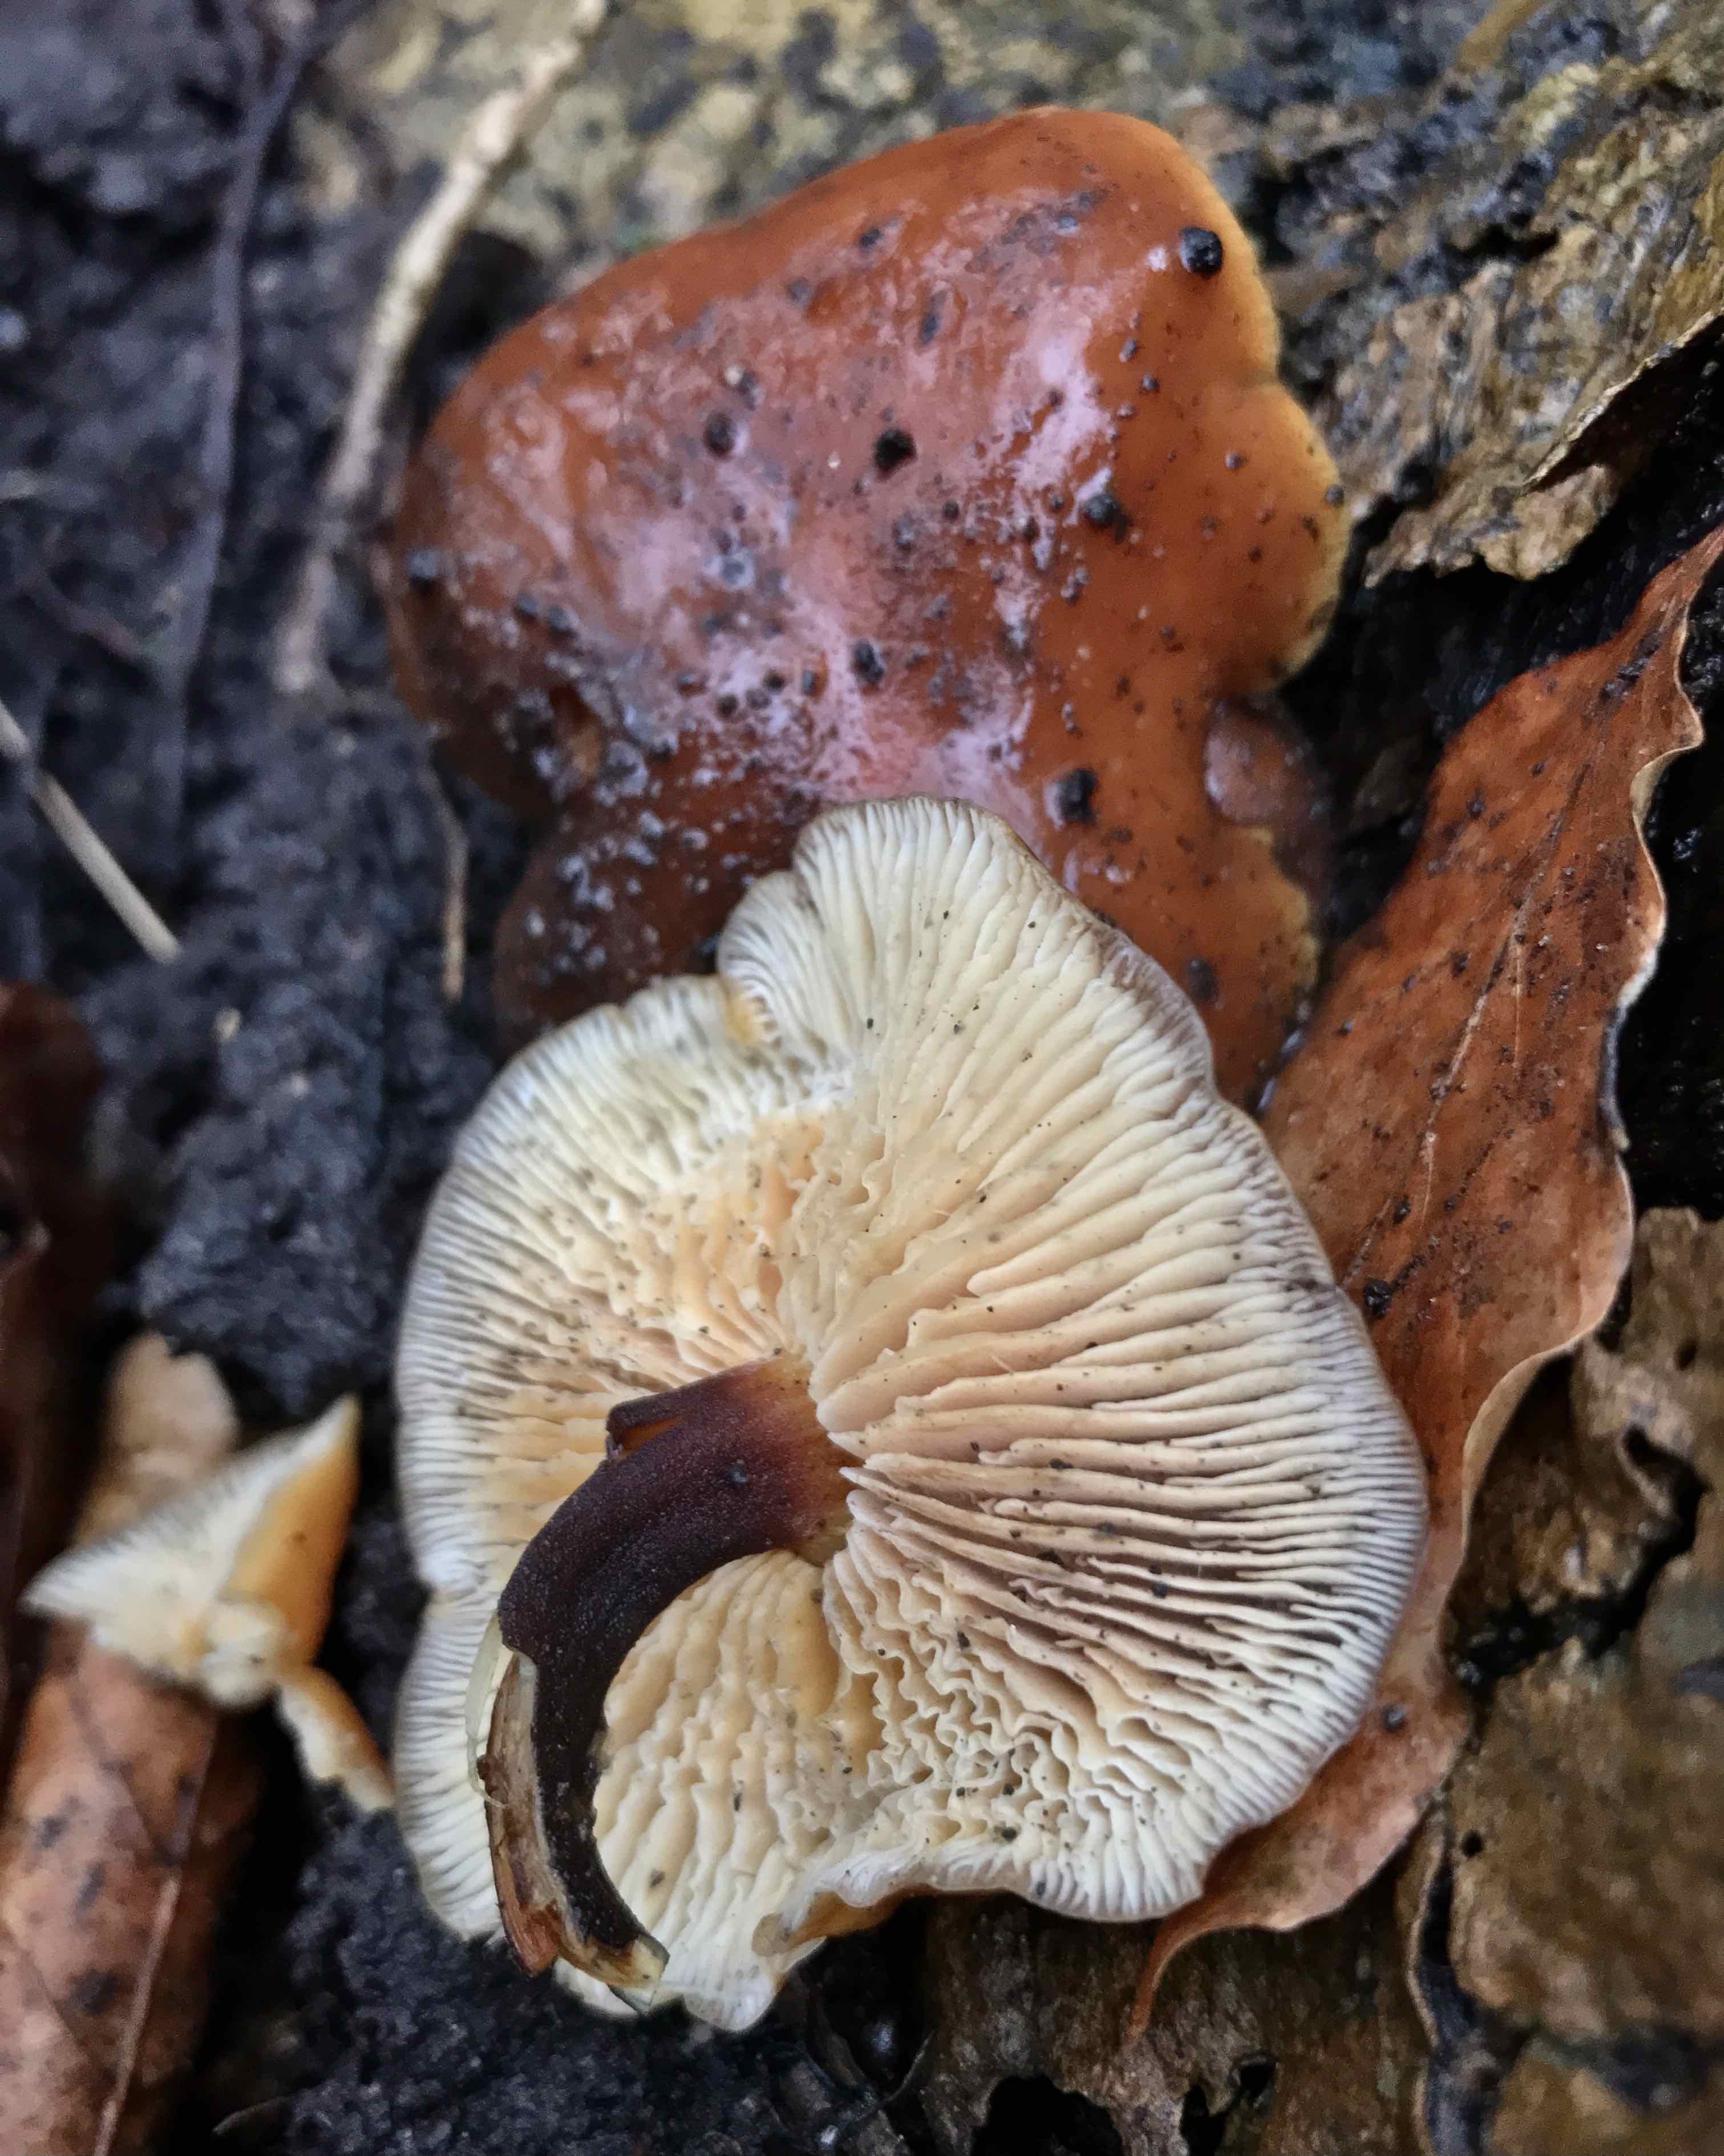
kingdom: Fungi
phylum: Basidiomycota
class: Agaricomycetes
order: Agaricales
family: Physalacriaceae
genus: Flammulina
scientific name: Flammulina velutipes
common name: gul fløjlsfod
